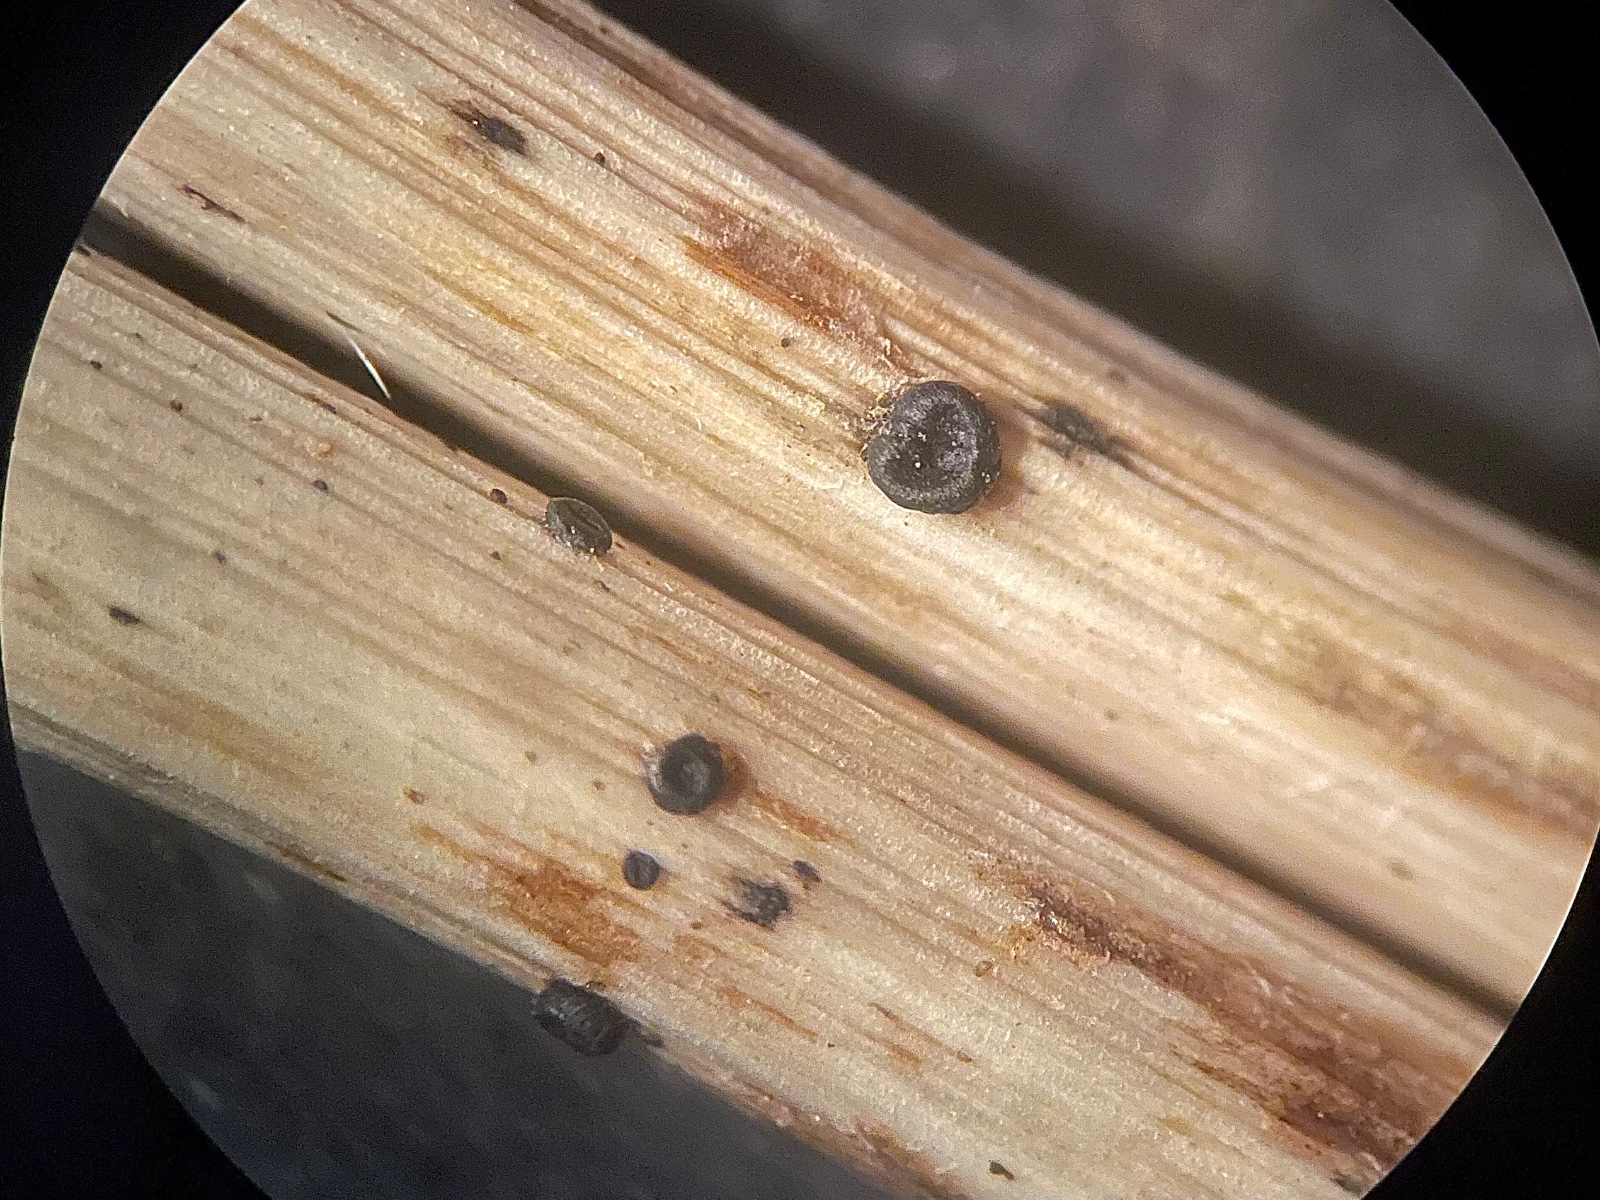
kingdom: Fungi
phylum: Ascomycota
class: Leotiomycetes
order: Helotiales
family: Heterosphaeriaceae
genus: Heterosphaeria
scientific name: Heterosphaeria
